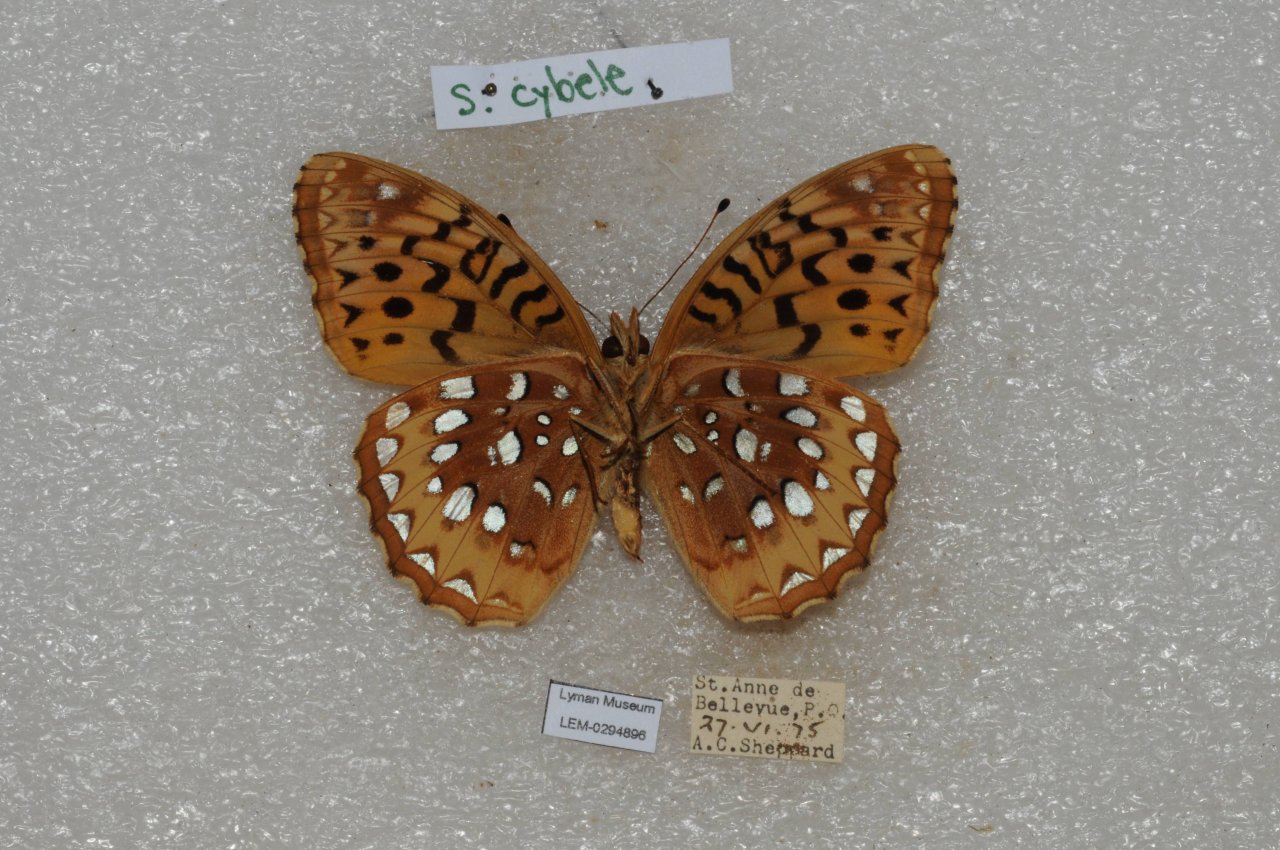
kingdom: Animalia
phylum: Arthropoda
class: Insecta
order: Lepidoptera
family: Nymphalidae
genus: Speyeria
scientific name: Speyeria cybele
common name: Great Spangled Fritillary
